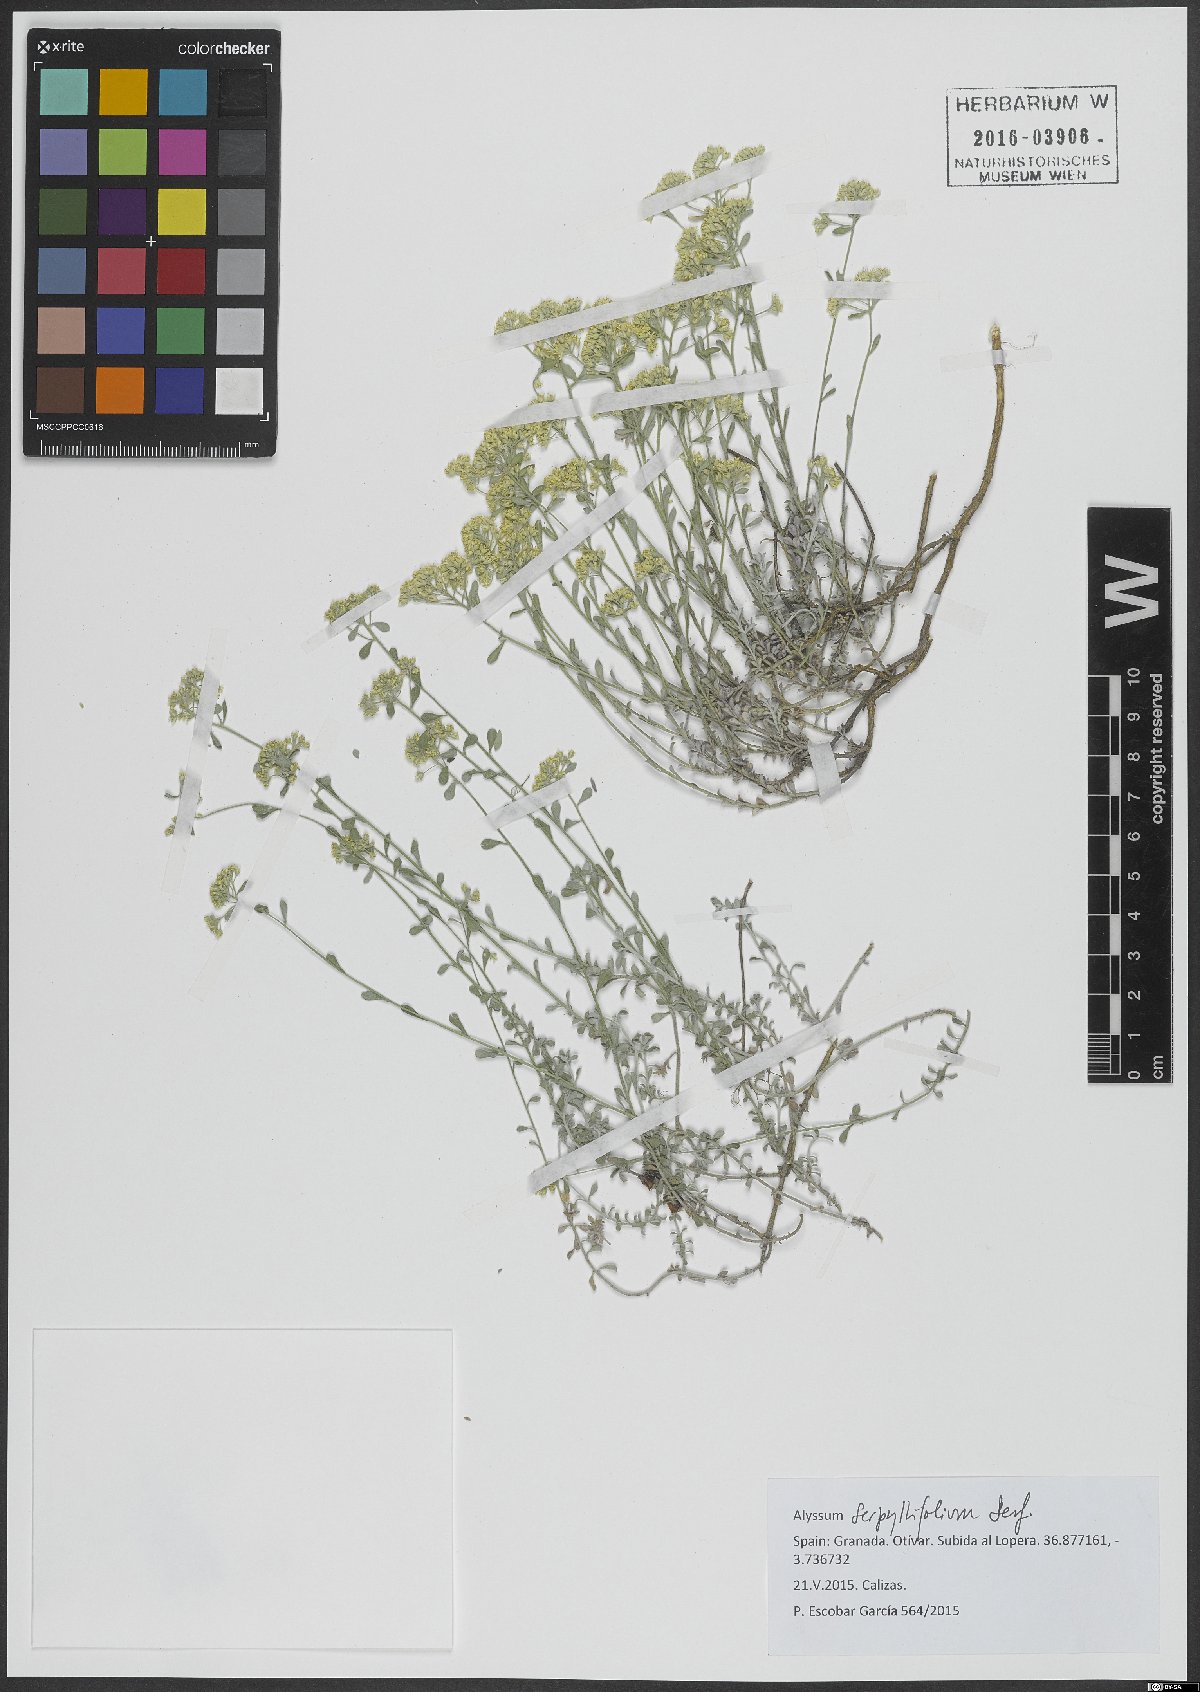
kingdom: Plantae
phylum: Tracheophyta
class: Magnoliopsida
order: Brassicales
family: Brassicaceae
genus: Odontarrhena
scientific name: Odontarrhena serpyllifolia
